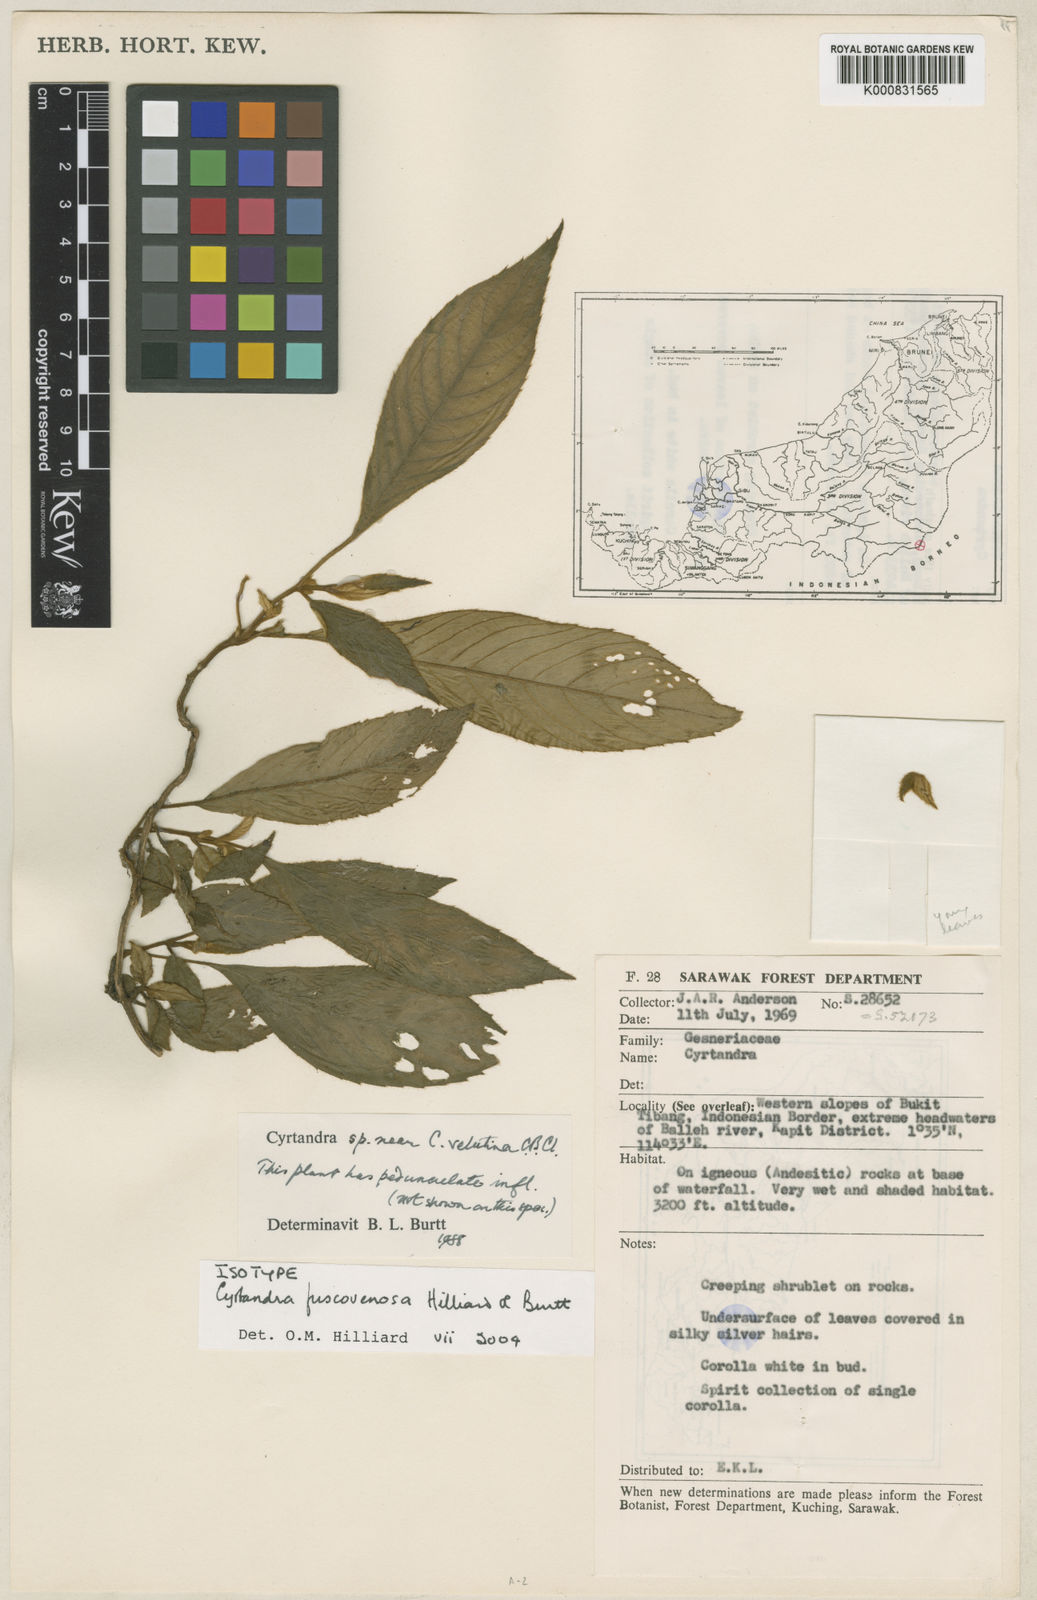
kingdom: Plantae
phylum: Tracheophyta
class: Magnoliopsida
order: Lamiales
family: Gesneriaceae
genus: Cyrtandra
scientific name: Cyrtandra fuscovenosa
